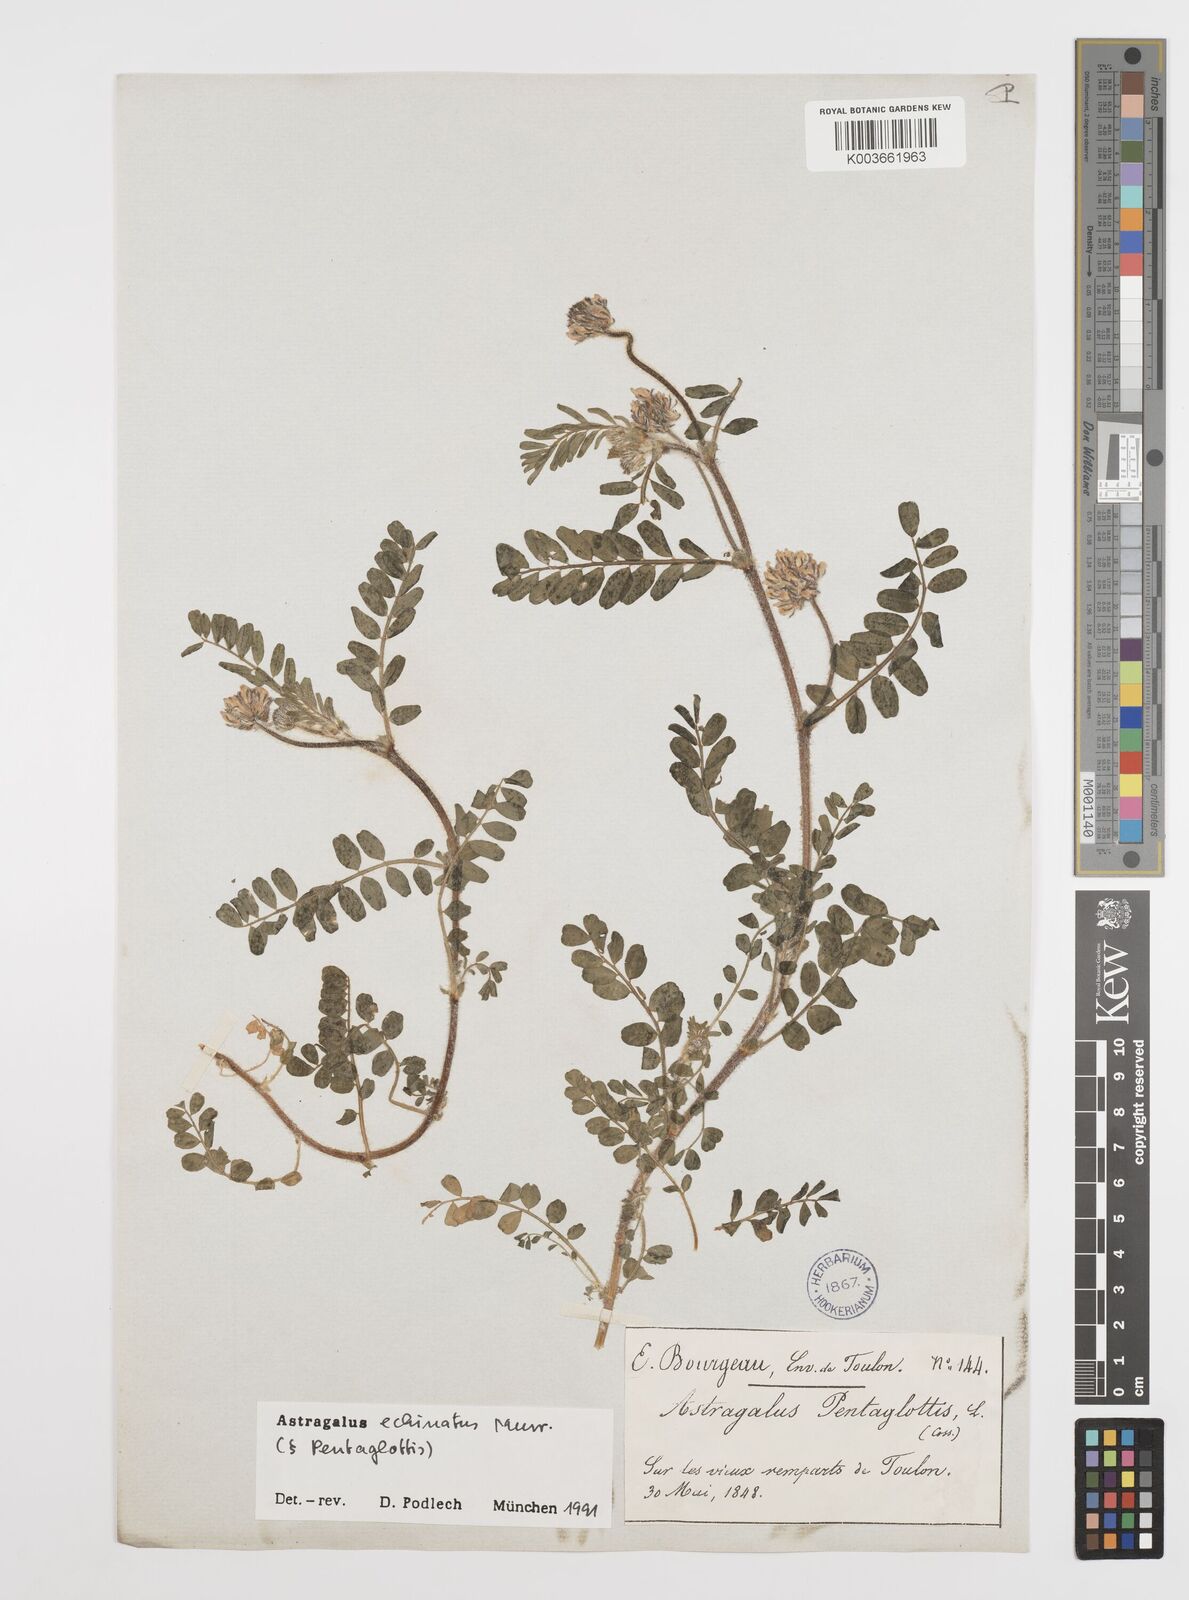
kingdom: Plantae
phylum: Tracheophyta
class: Magnoliopsida
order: Fabales
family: Fabaceae
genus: Astragalus
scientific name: Astragalus echinatus
